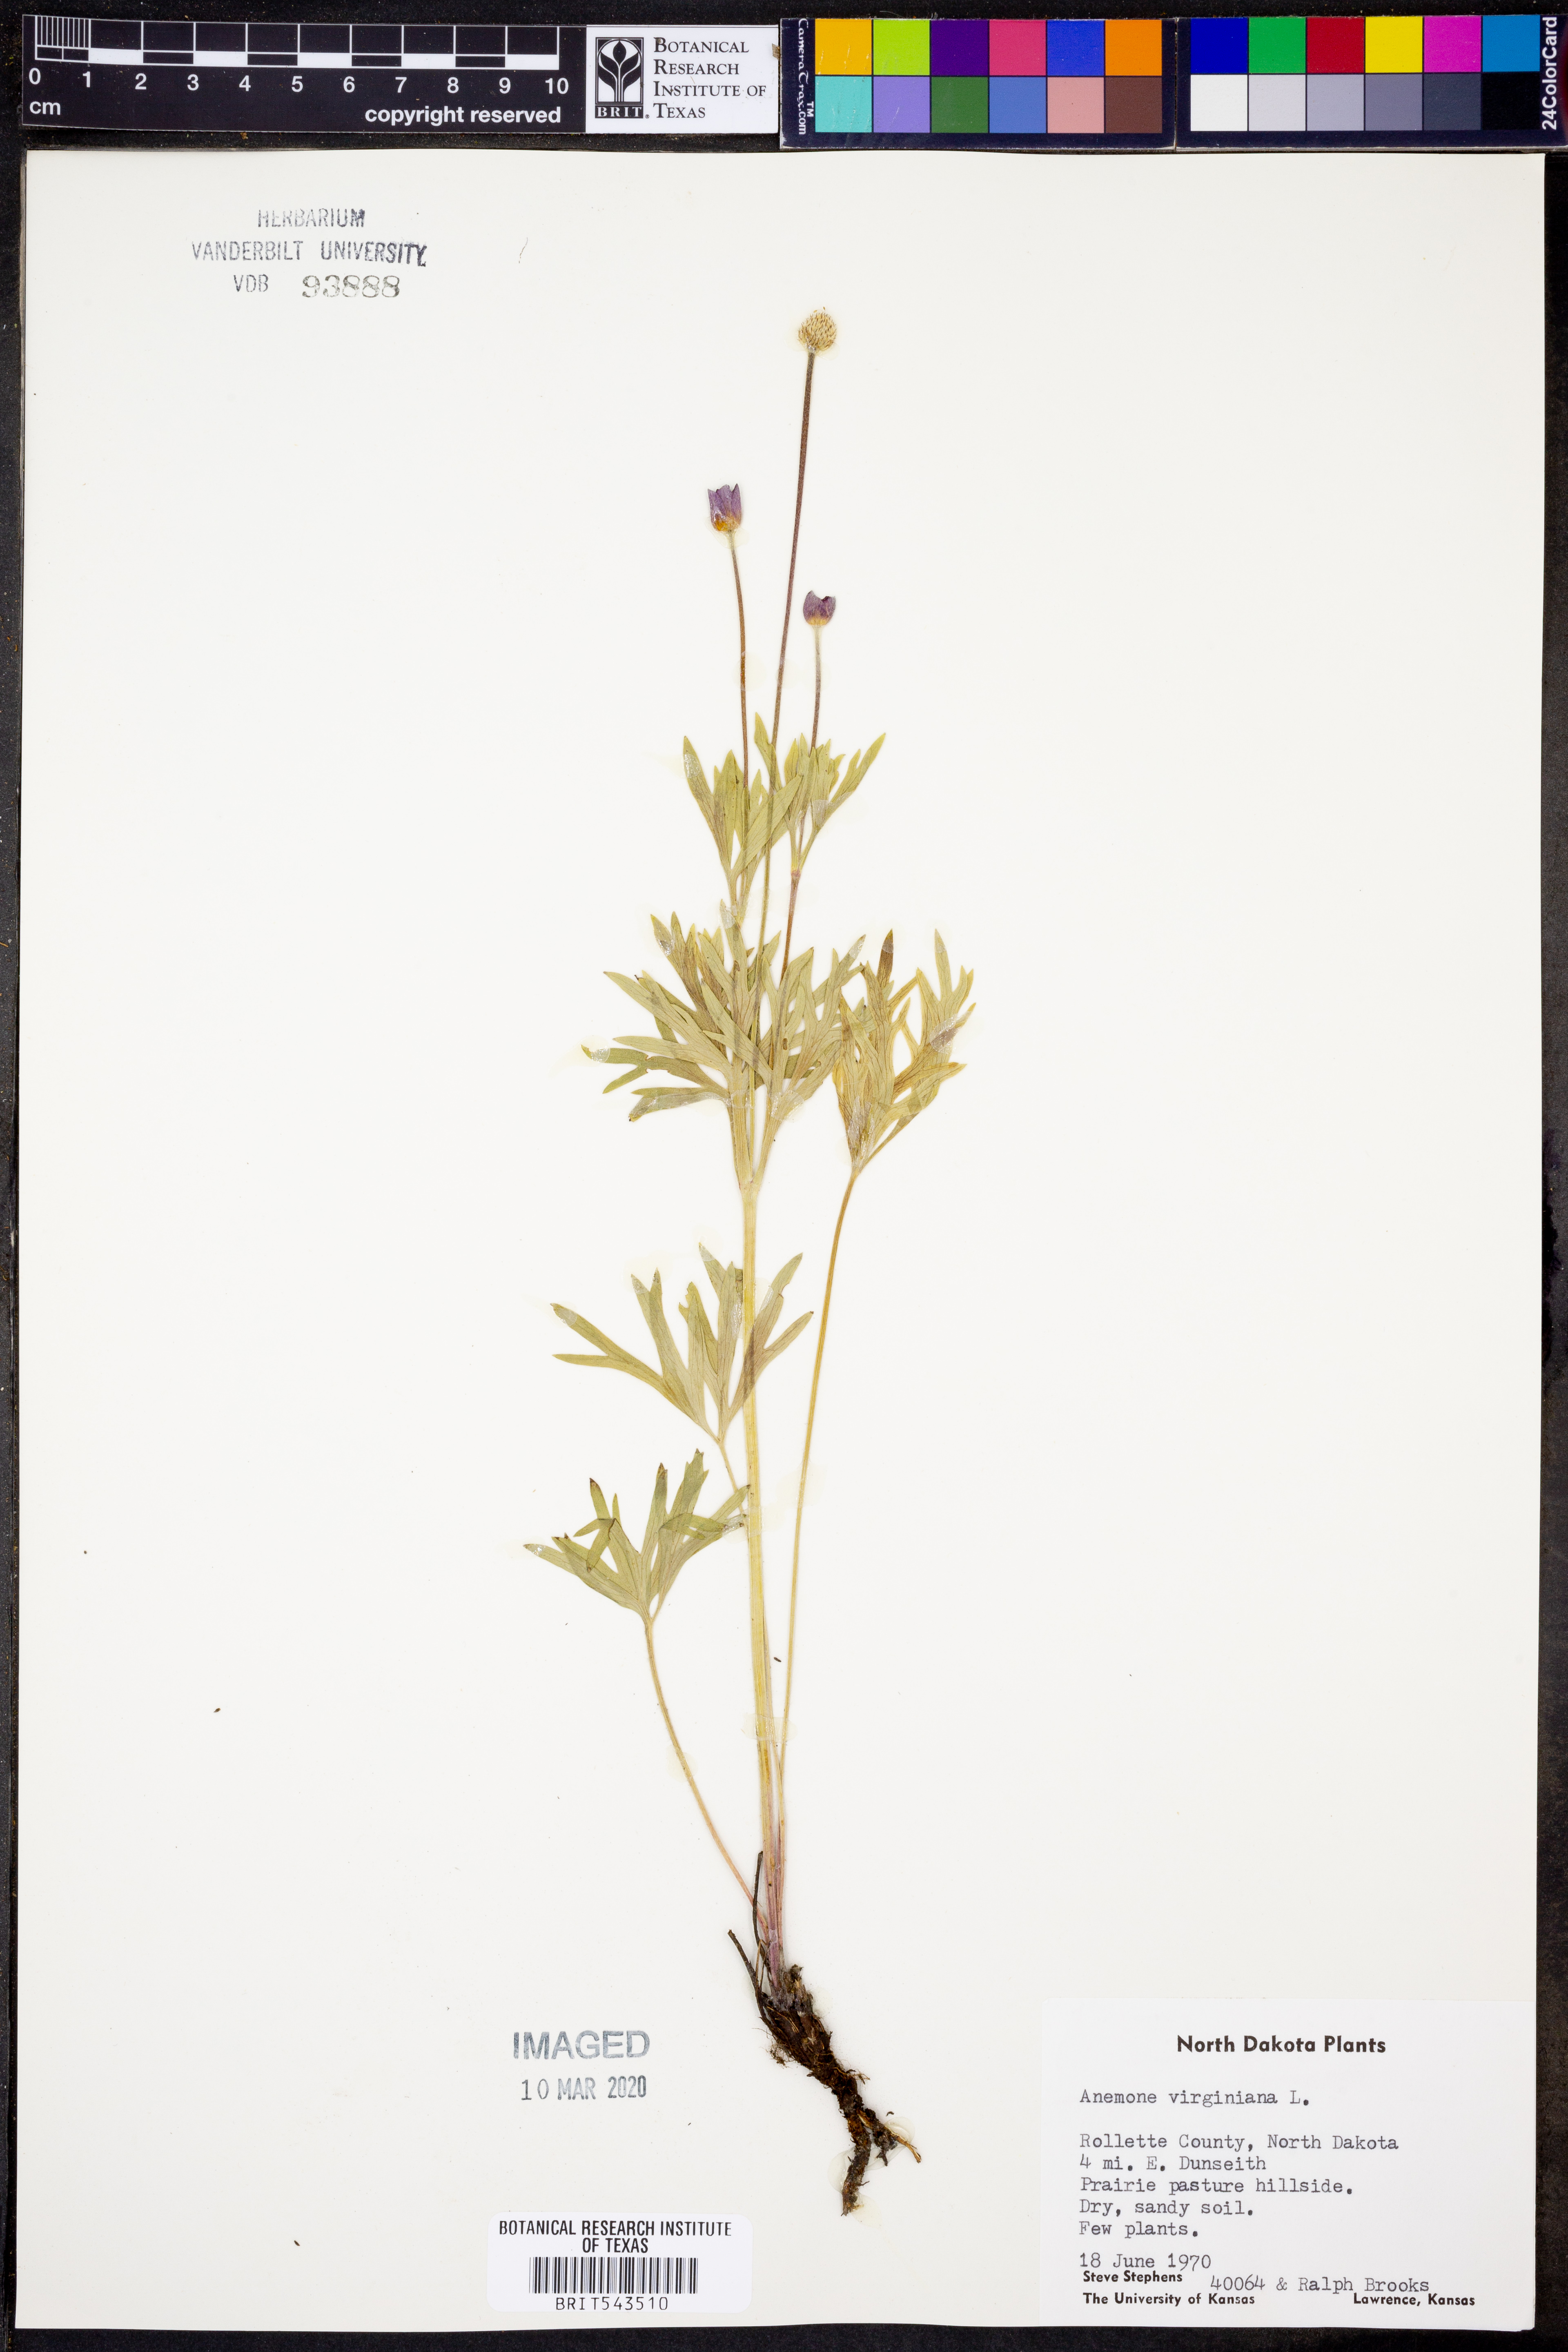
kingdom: Plantae
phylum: Tracheophyta
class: Magnoliopsida
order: Ranunculales
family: Ranunculaceae
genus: Anemone
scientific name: Anemone virginiana
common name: Tall anemone
